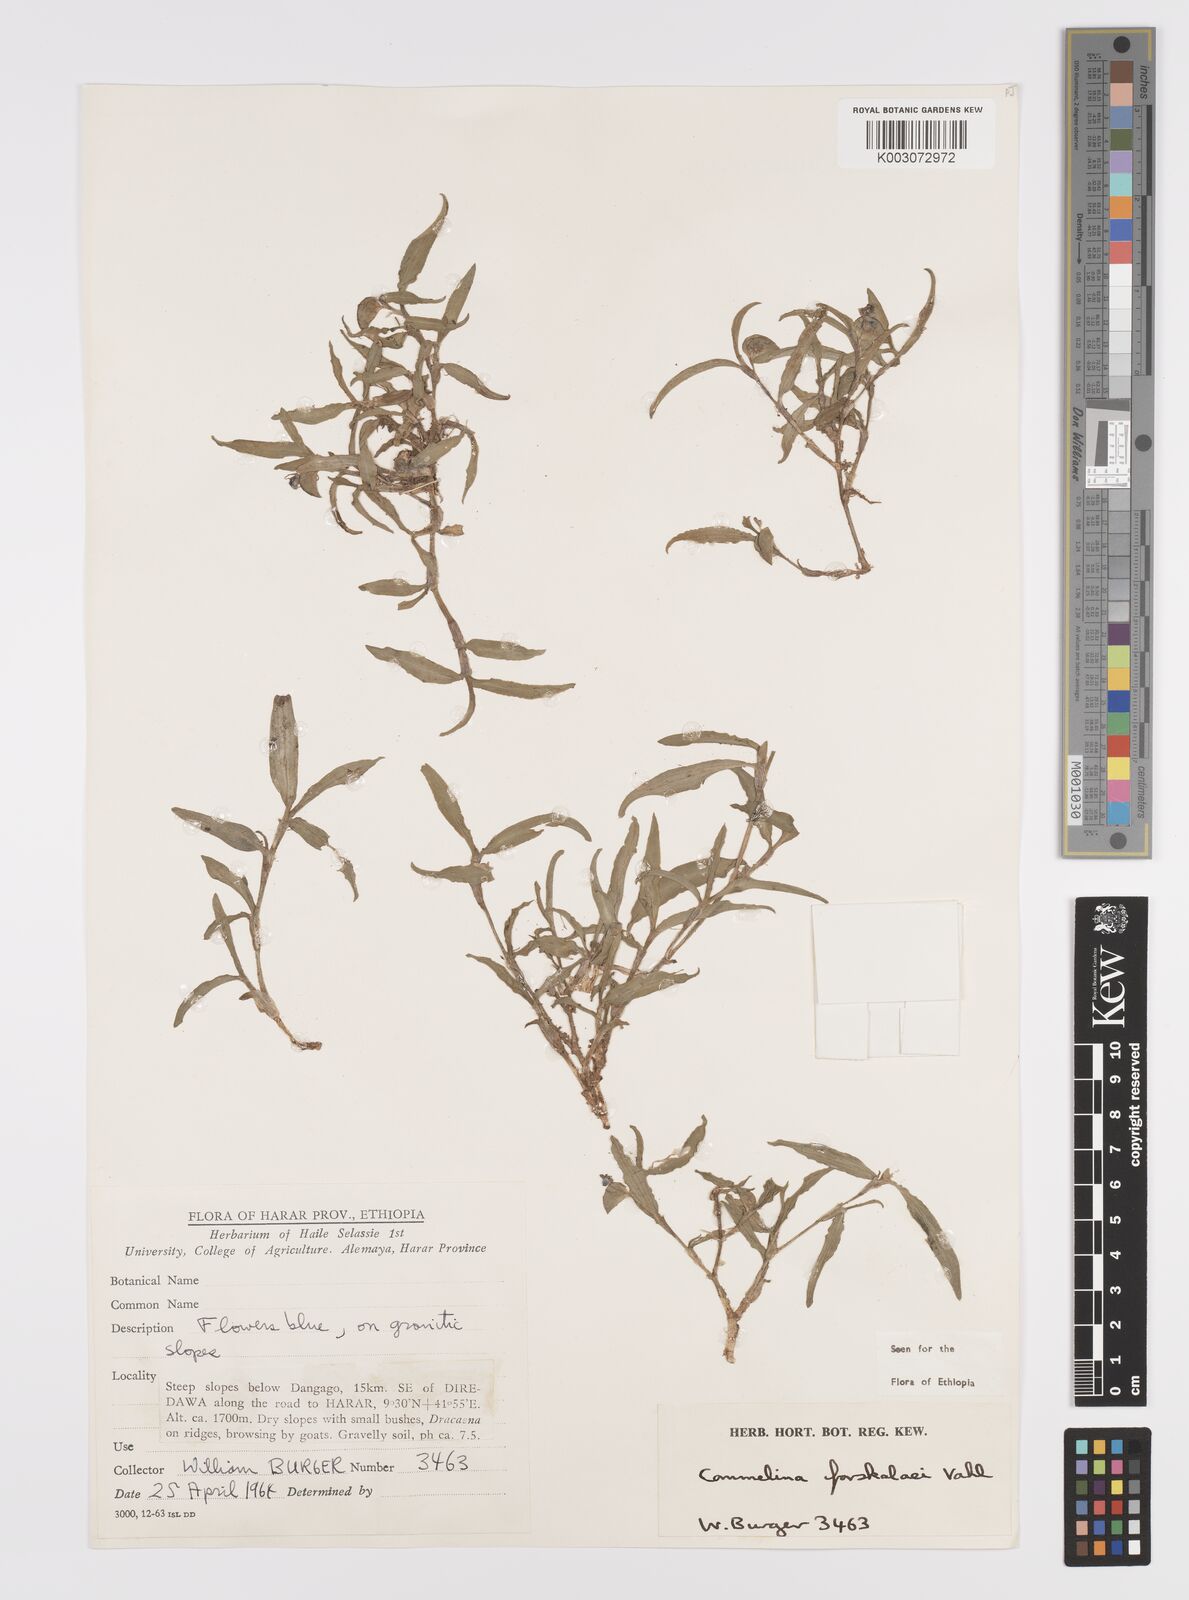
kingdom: Plantae
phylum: Tracheophyta
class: Liliopsida
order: Commelinales
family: Commelinaceae
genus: Commelina
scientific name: Commelina forskaolii
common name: Rat's ear
